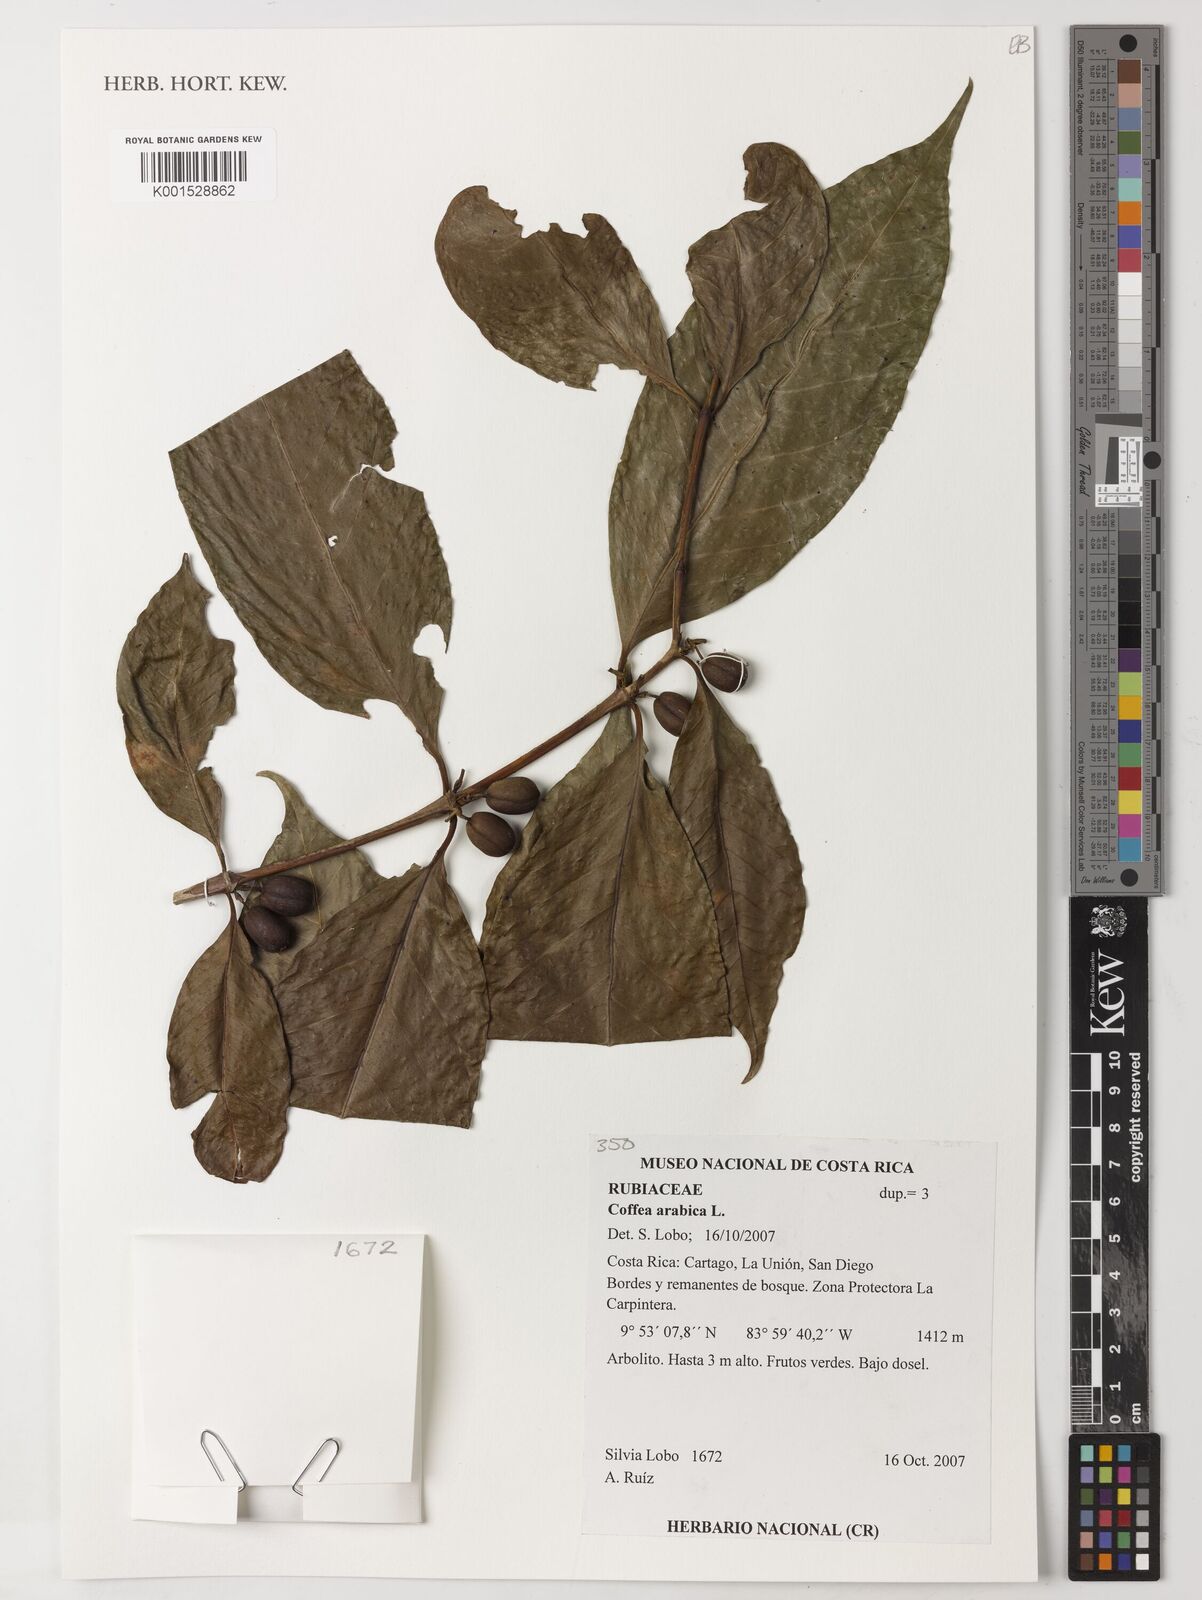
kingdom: Plantae
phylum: Tracheophyta
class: Magnoliopsida
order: Gentianales
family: Rubiaceae
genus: Coffea
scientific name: Coffea arabica
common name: Coffee
